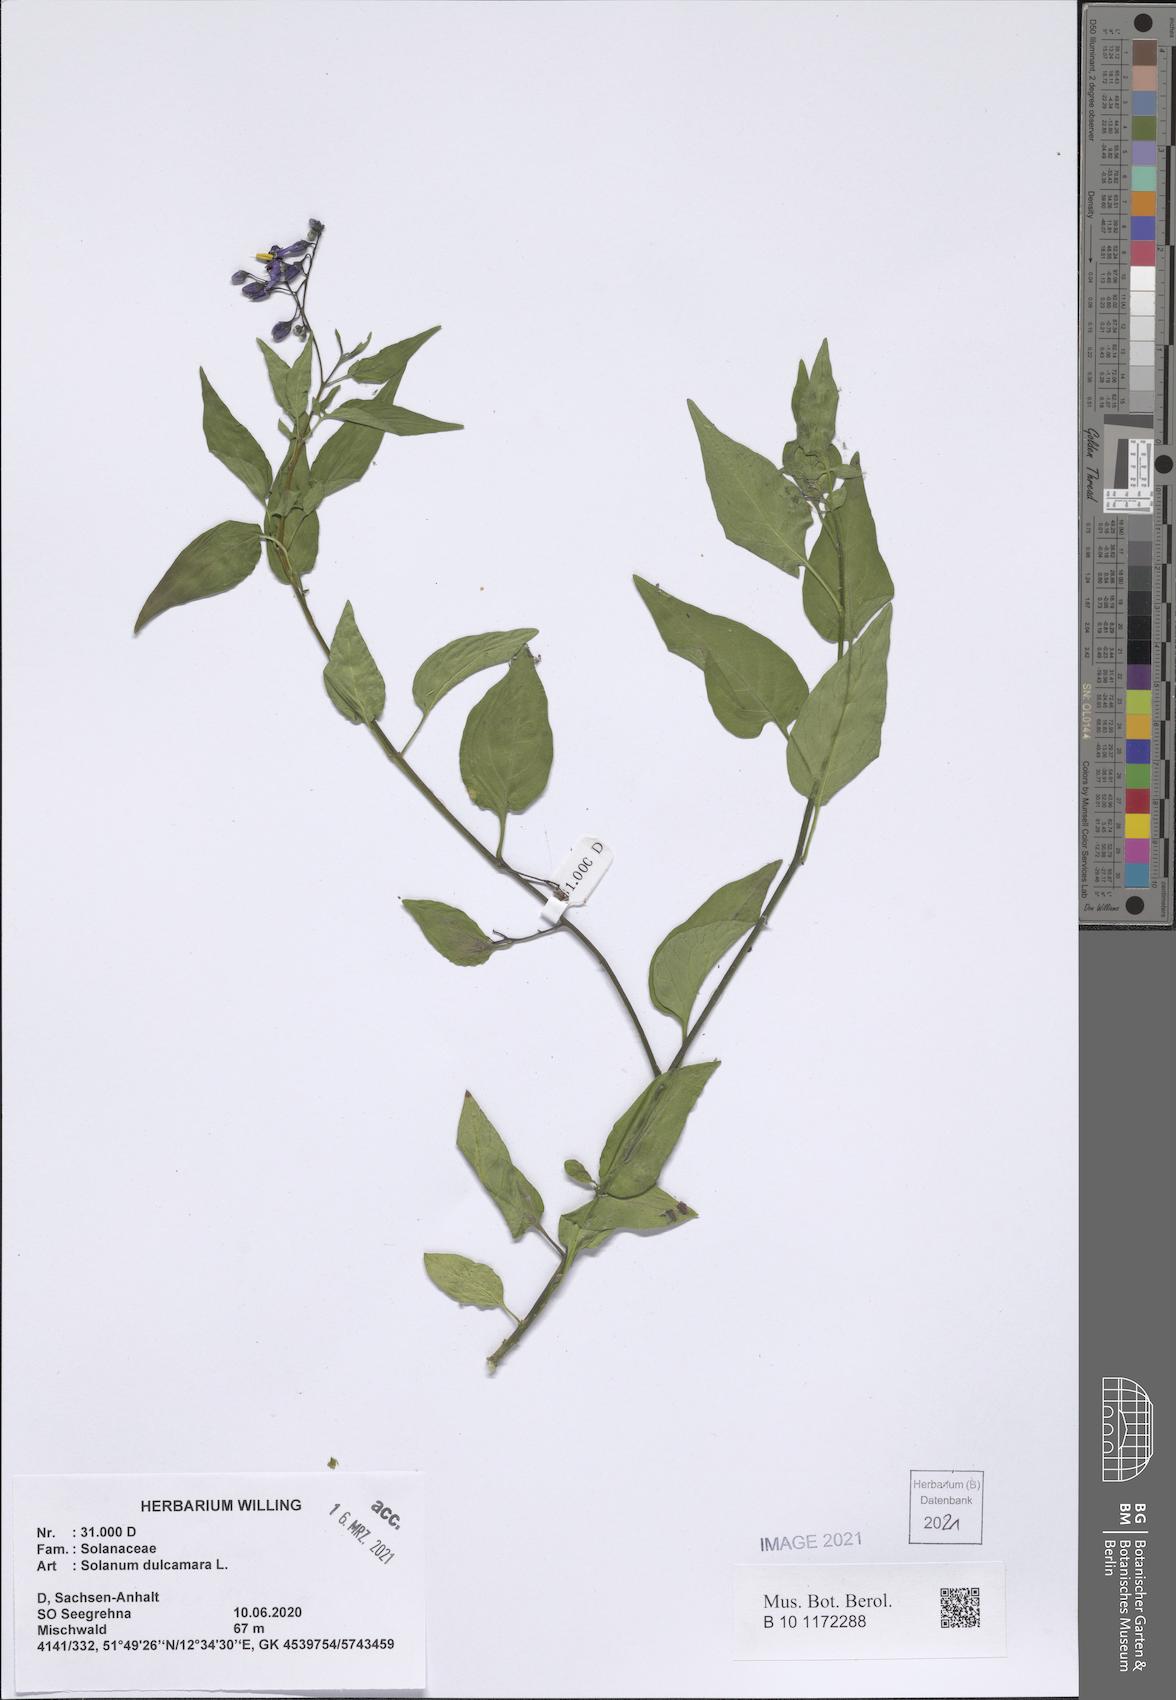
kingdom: Plantae
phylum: Tracheophyta
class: Magnoliopsida
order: Solanales
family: Solanaceae
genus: Solanum
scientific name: Solanum dulcamara
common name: Climbing nightshade
